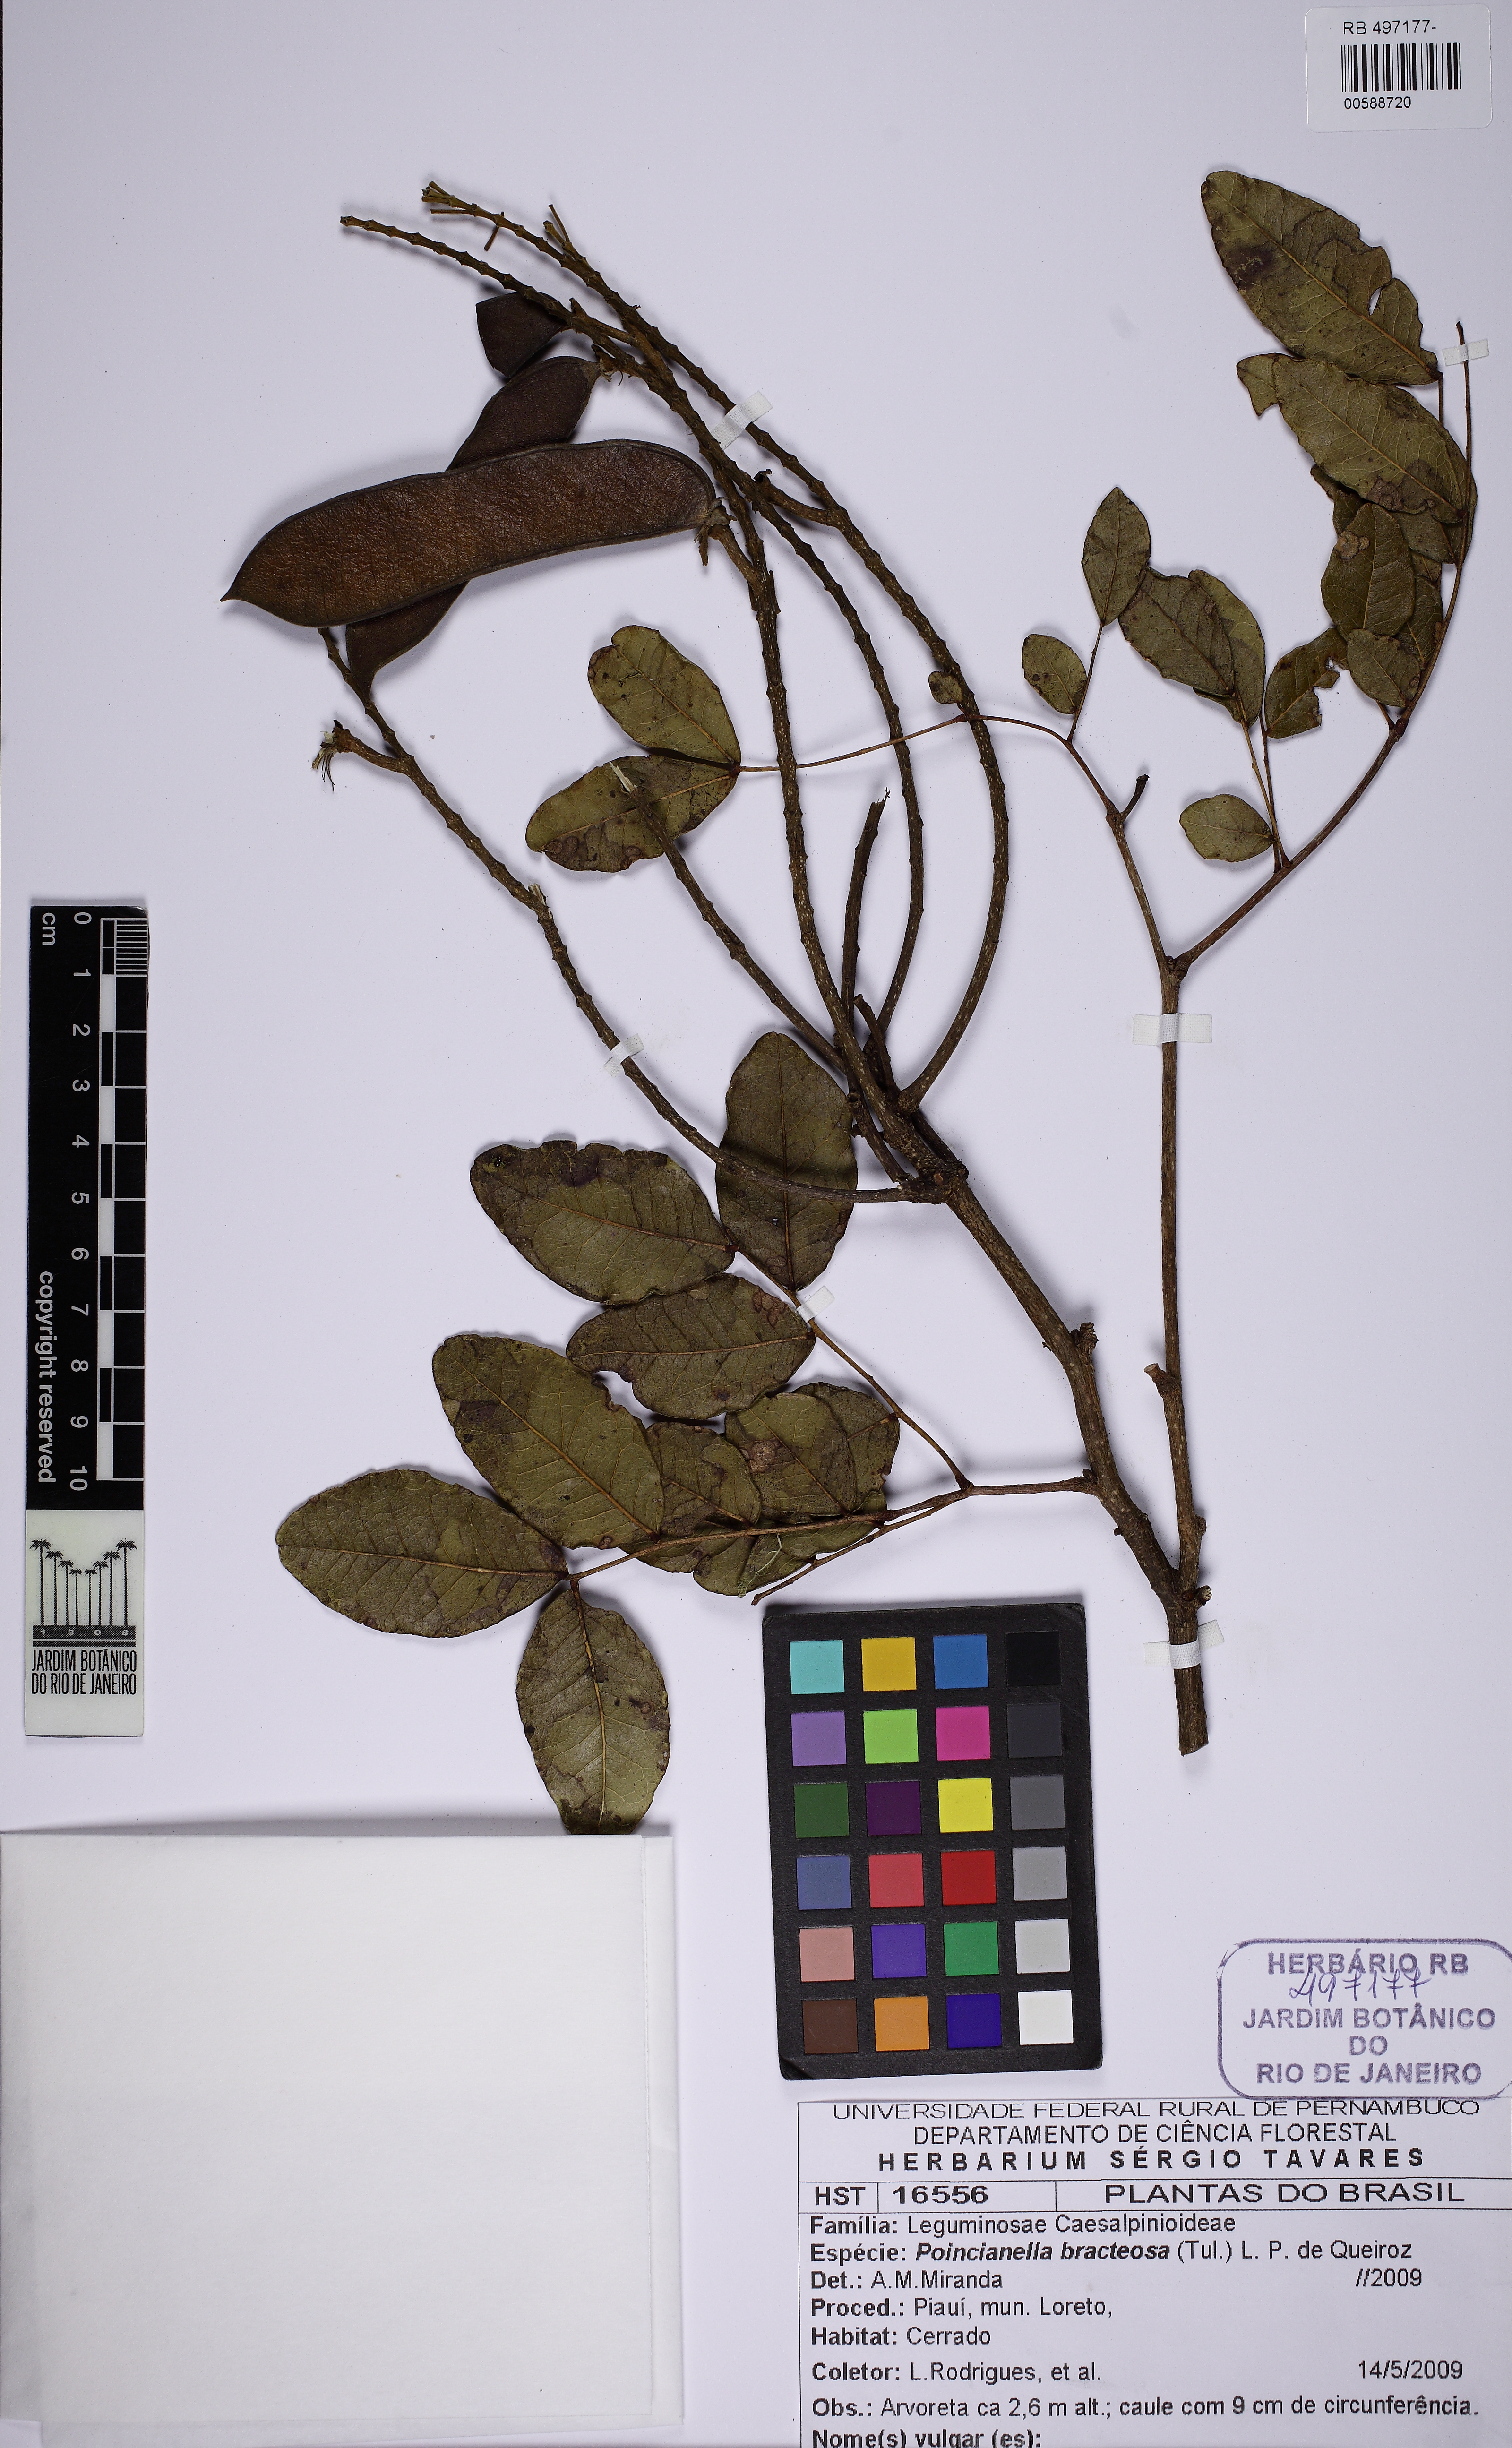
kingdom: Plantae
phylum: Tracheophyta
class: Magnoliopsida
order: Fabales
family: Fabaceae
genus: Cenostigma
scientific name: Cenostigma bracteosum
